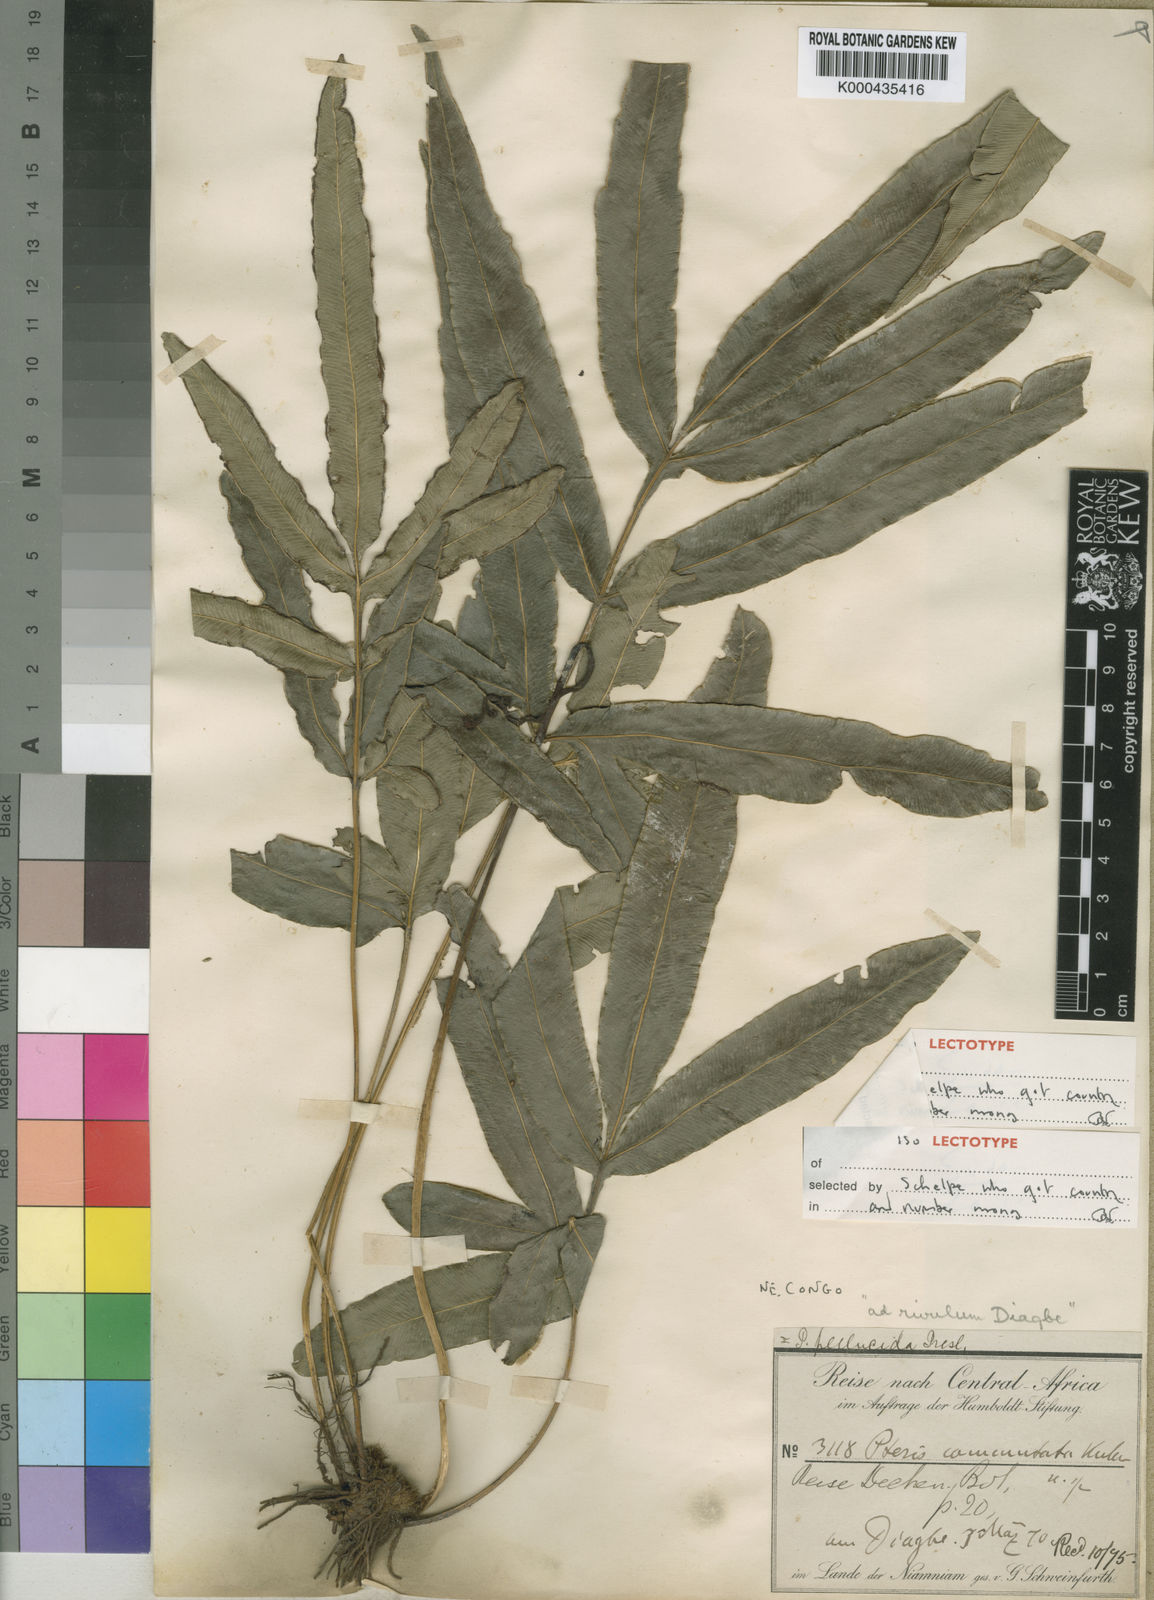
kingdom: Plantae
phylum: Tracheophyta
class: Polypodiopsida
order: Polypodiales
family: Pteridaceae
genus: Pteris
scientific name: Pteris commutata
